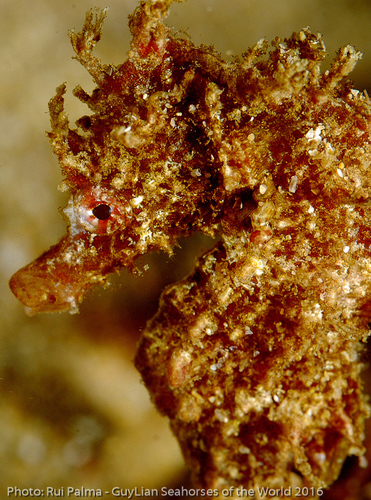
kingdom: Animalia
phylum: Chordata
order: Syngnathiformes
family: Syngnathidae
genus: Hippocampus
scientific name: Hippocampus hippocampus
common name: Short-snouted seahorse
